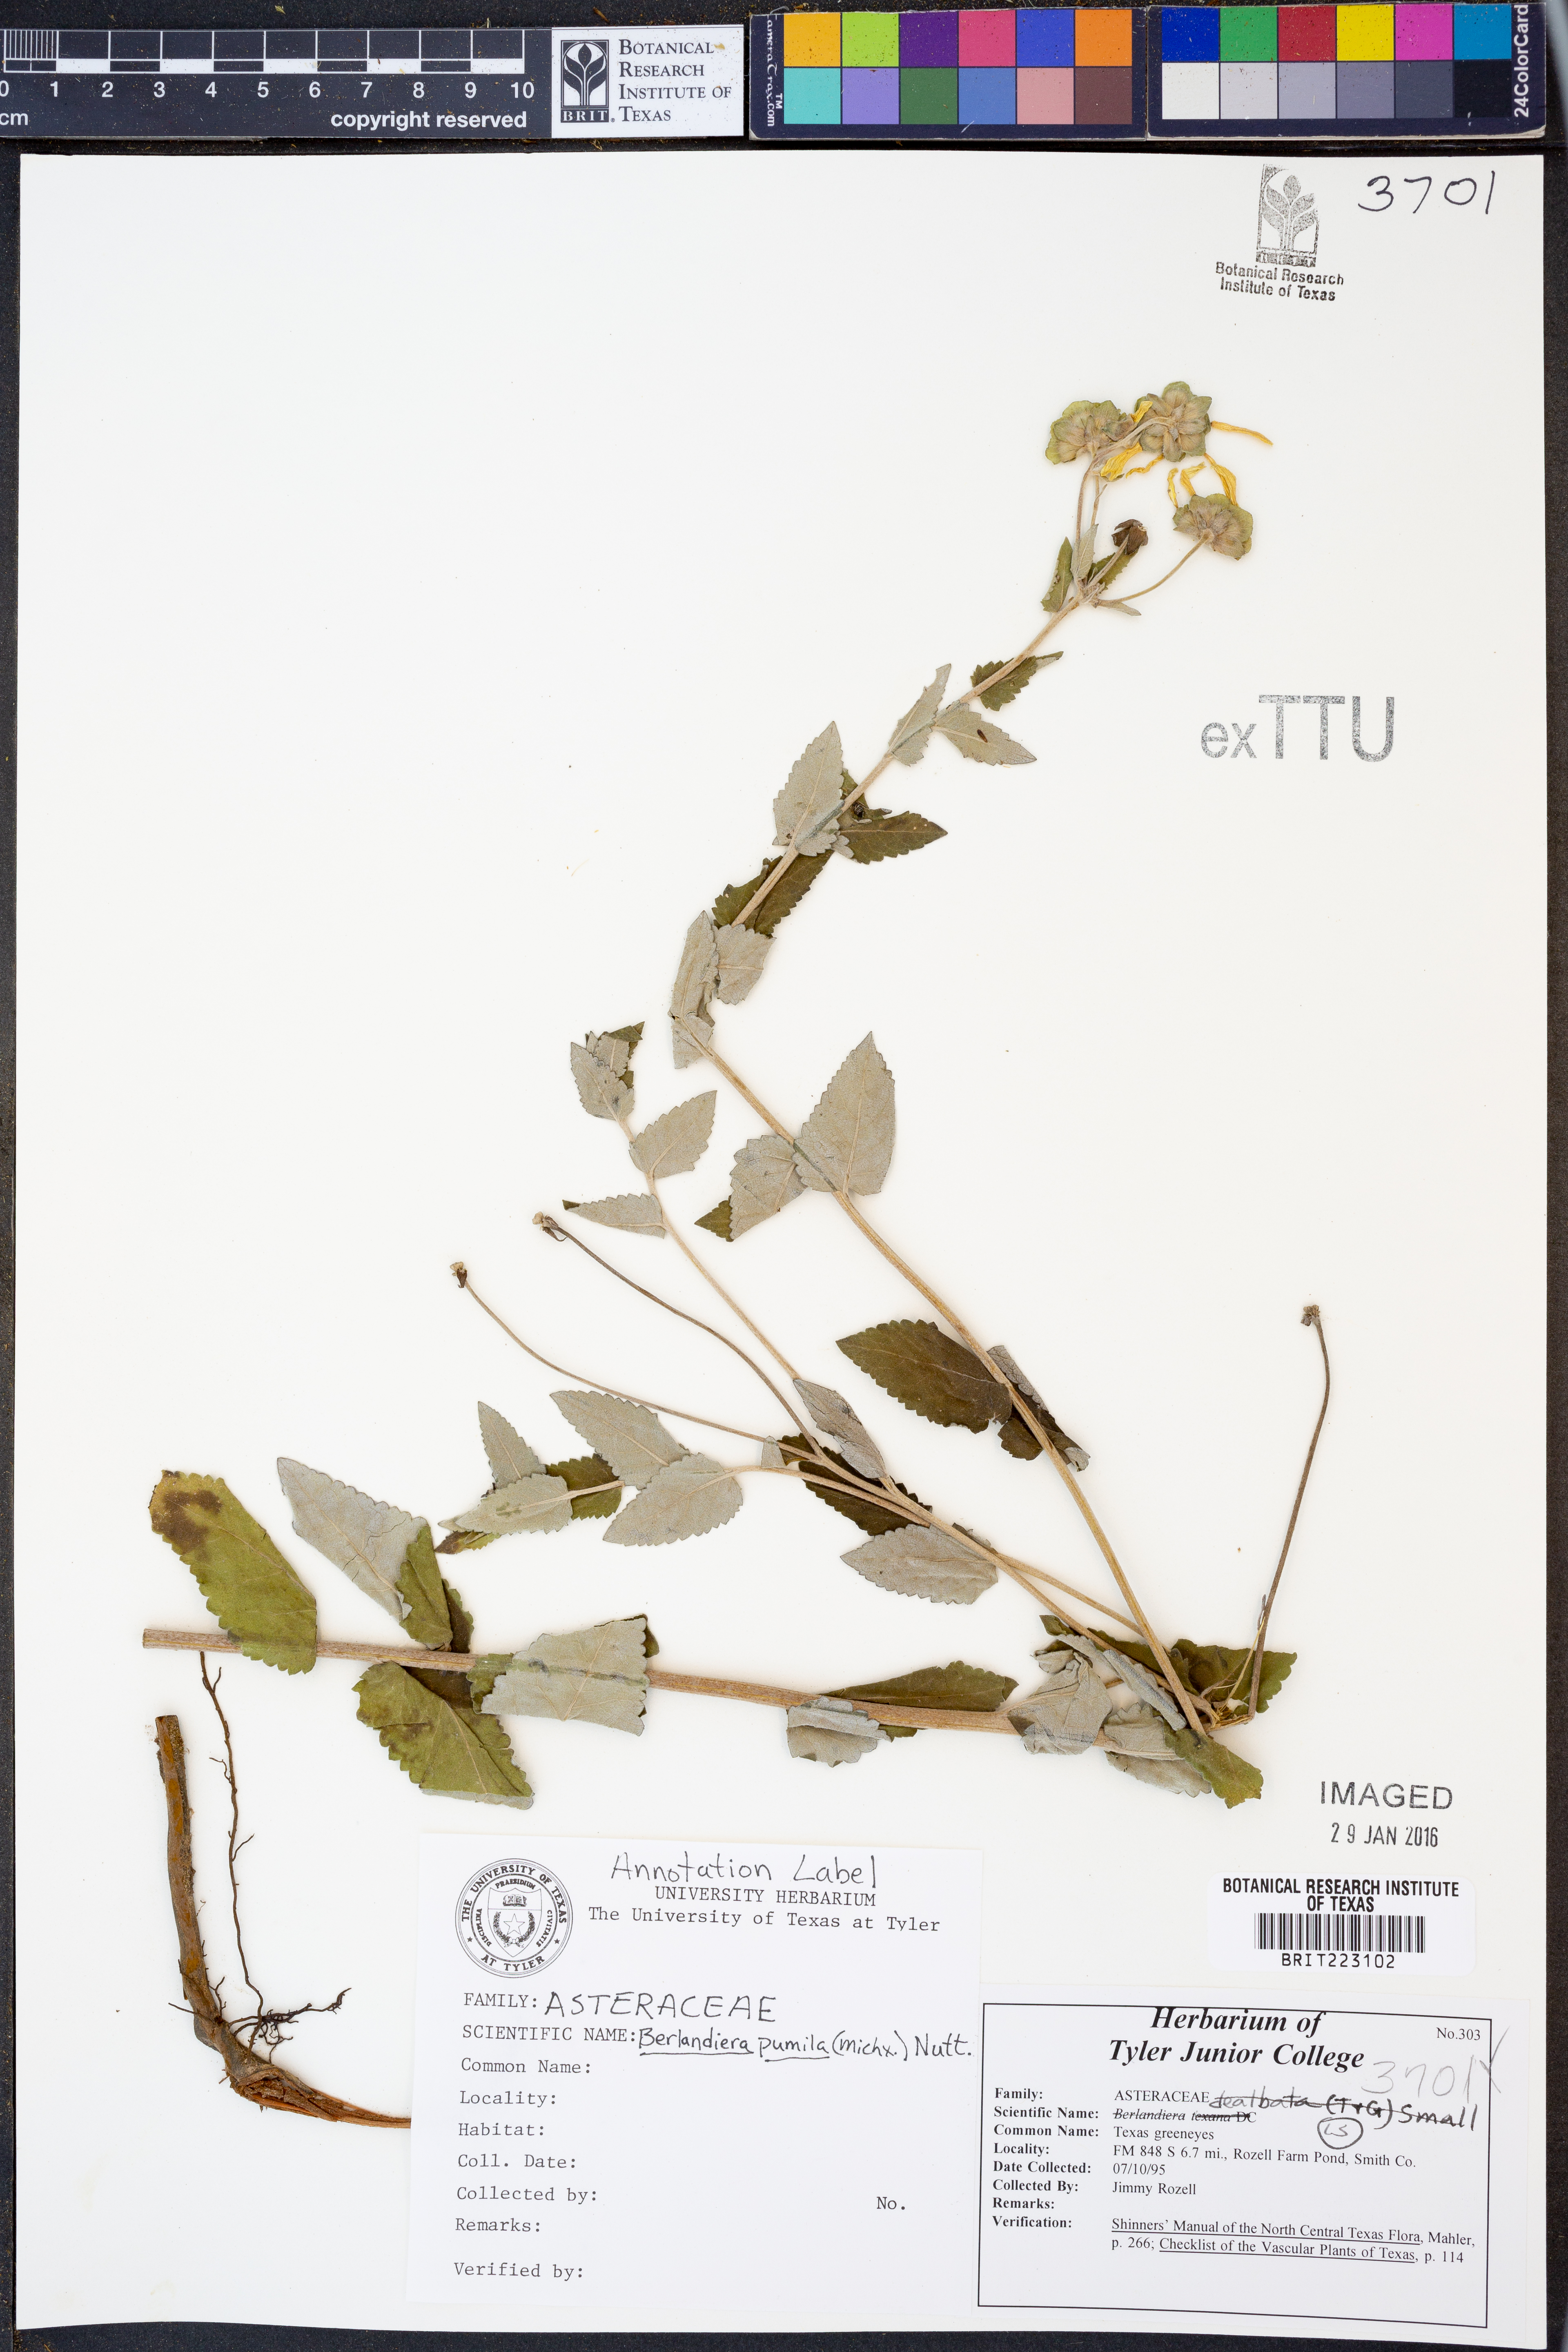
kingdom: Plantae
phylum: Tracheophyta
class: Magnoliopsida
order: Asterales
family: Asteraceae
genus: Berlandiera
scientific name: Berlandiera pumila
